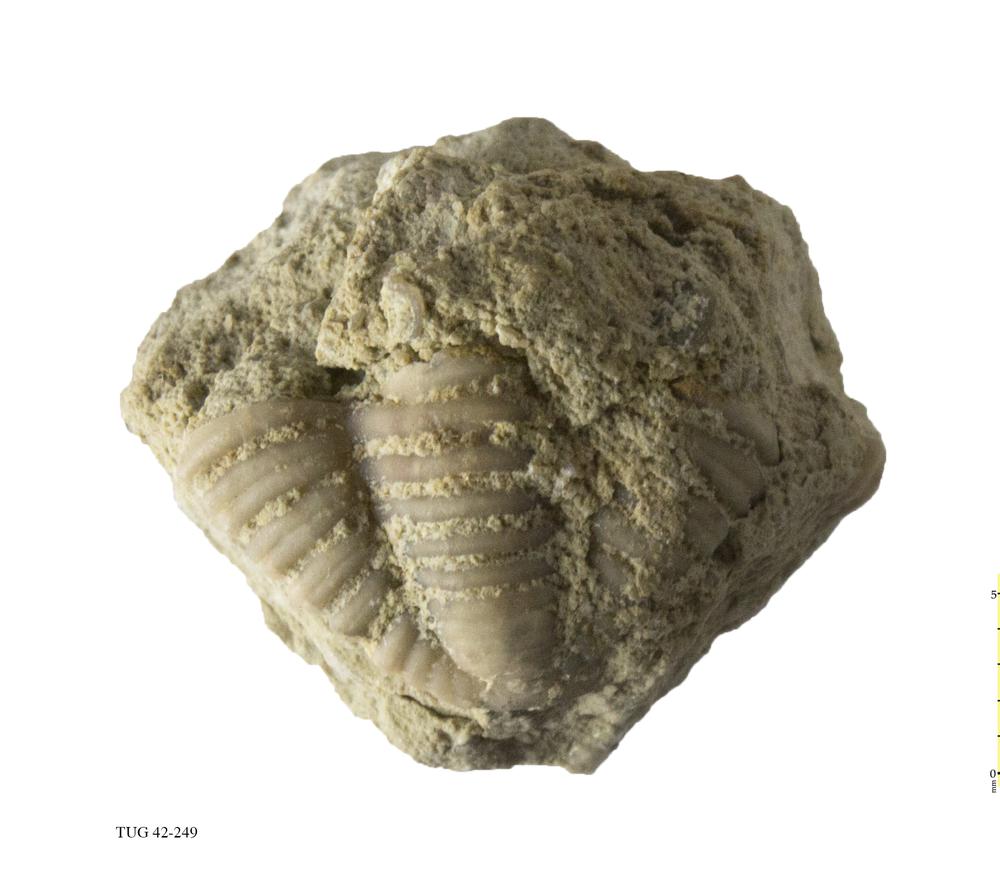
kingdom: Animalia
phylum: Arthropoda
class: Trilobita
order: Phacopida
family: Phacopidae
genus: Phacops
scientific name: Phacops
